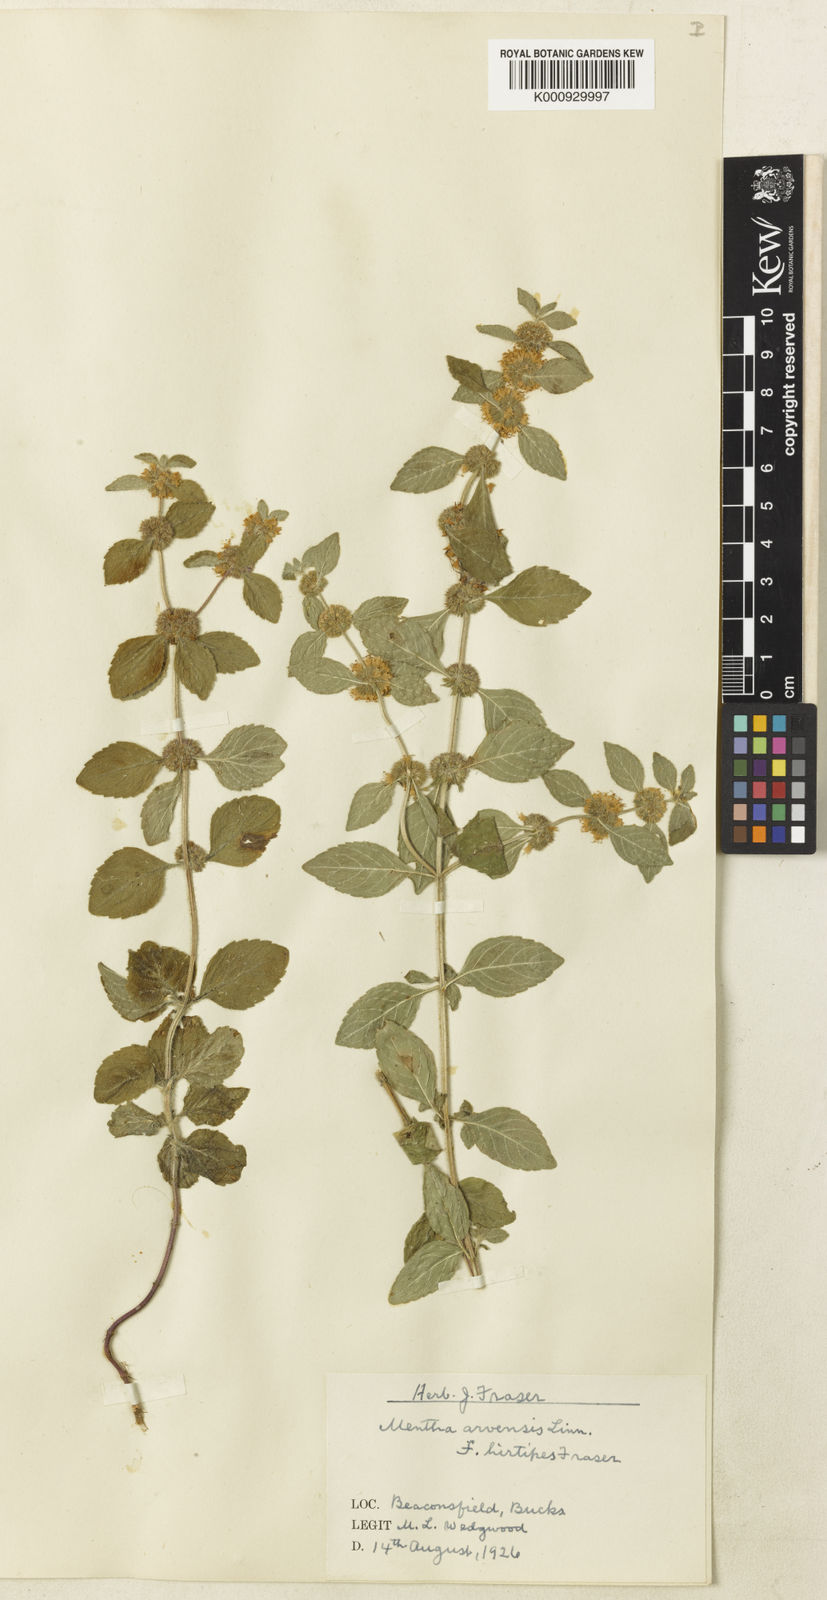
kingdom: Plantae
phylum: Tracheophyta
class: Magnoliopsida
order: Lamiales
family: Lamiaceae
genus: Mentha
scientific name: Mentha arvensis
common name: Corn mint
